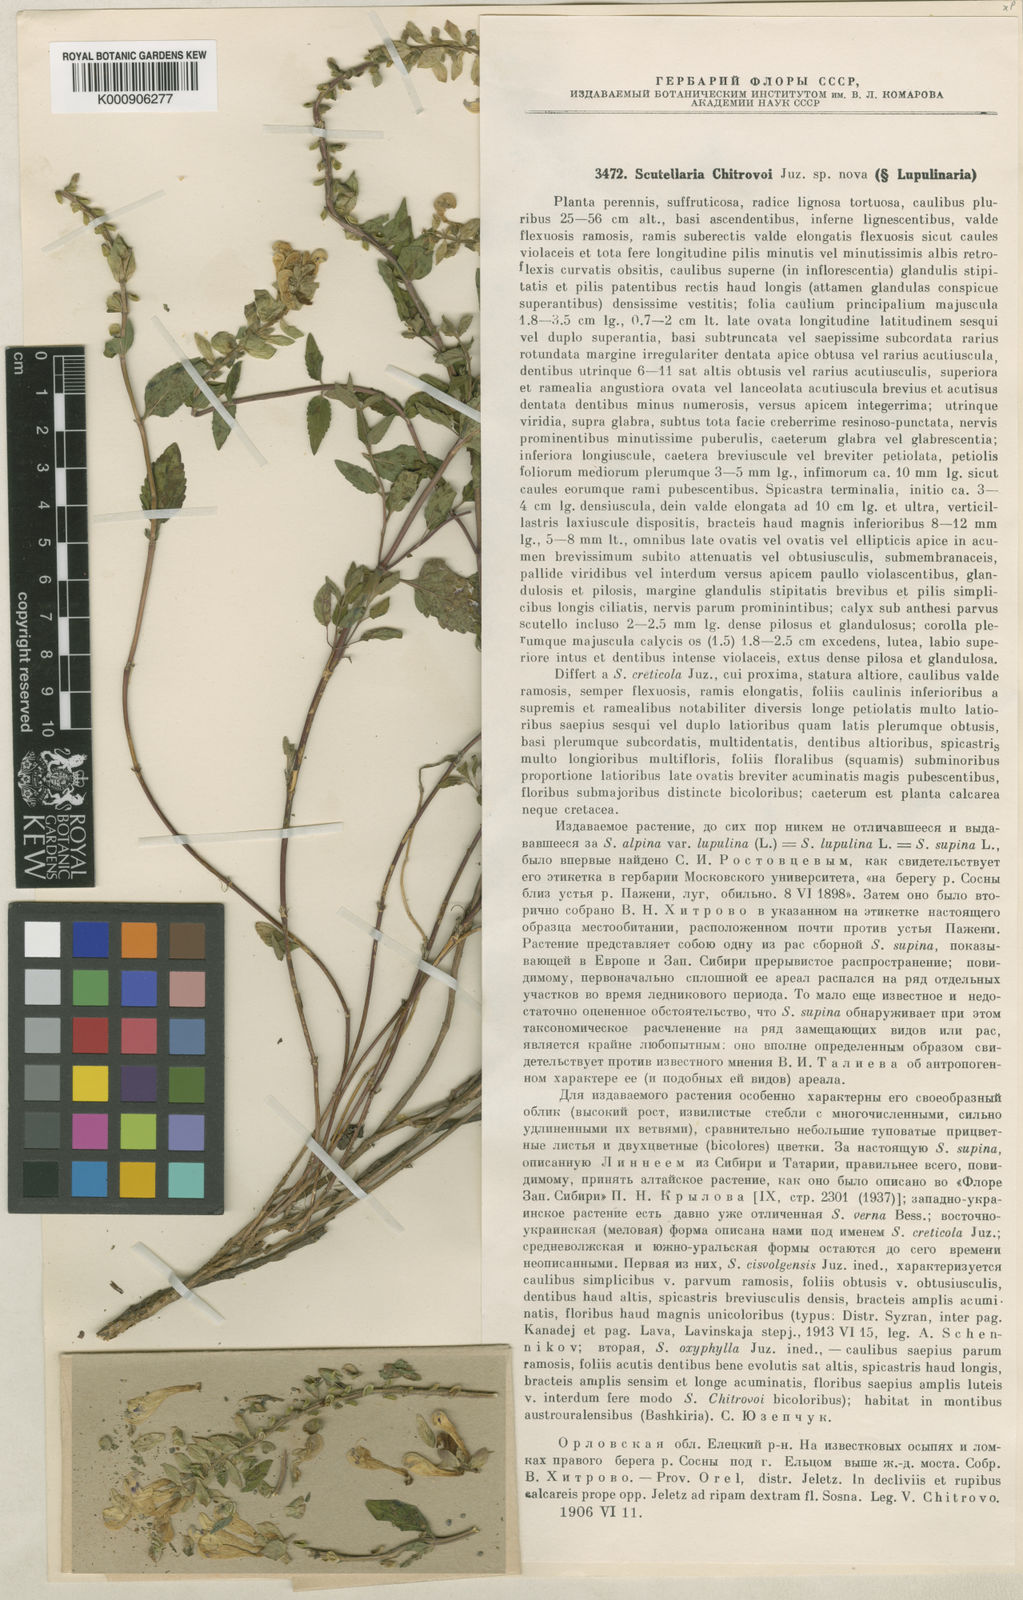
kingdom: Plantae
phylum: Tracheophyta
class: Magnoliopsida
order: Lamiales
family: Lamiaceae
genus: Scutellaria
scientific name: Scutellaria supina
